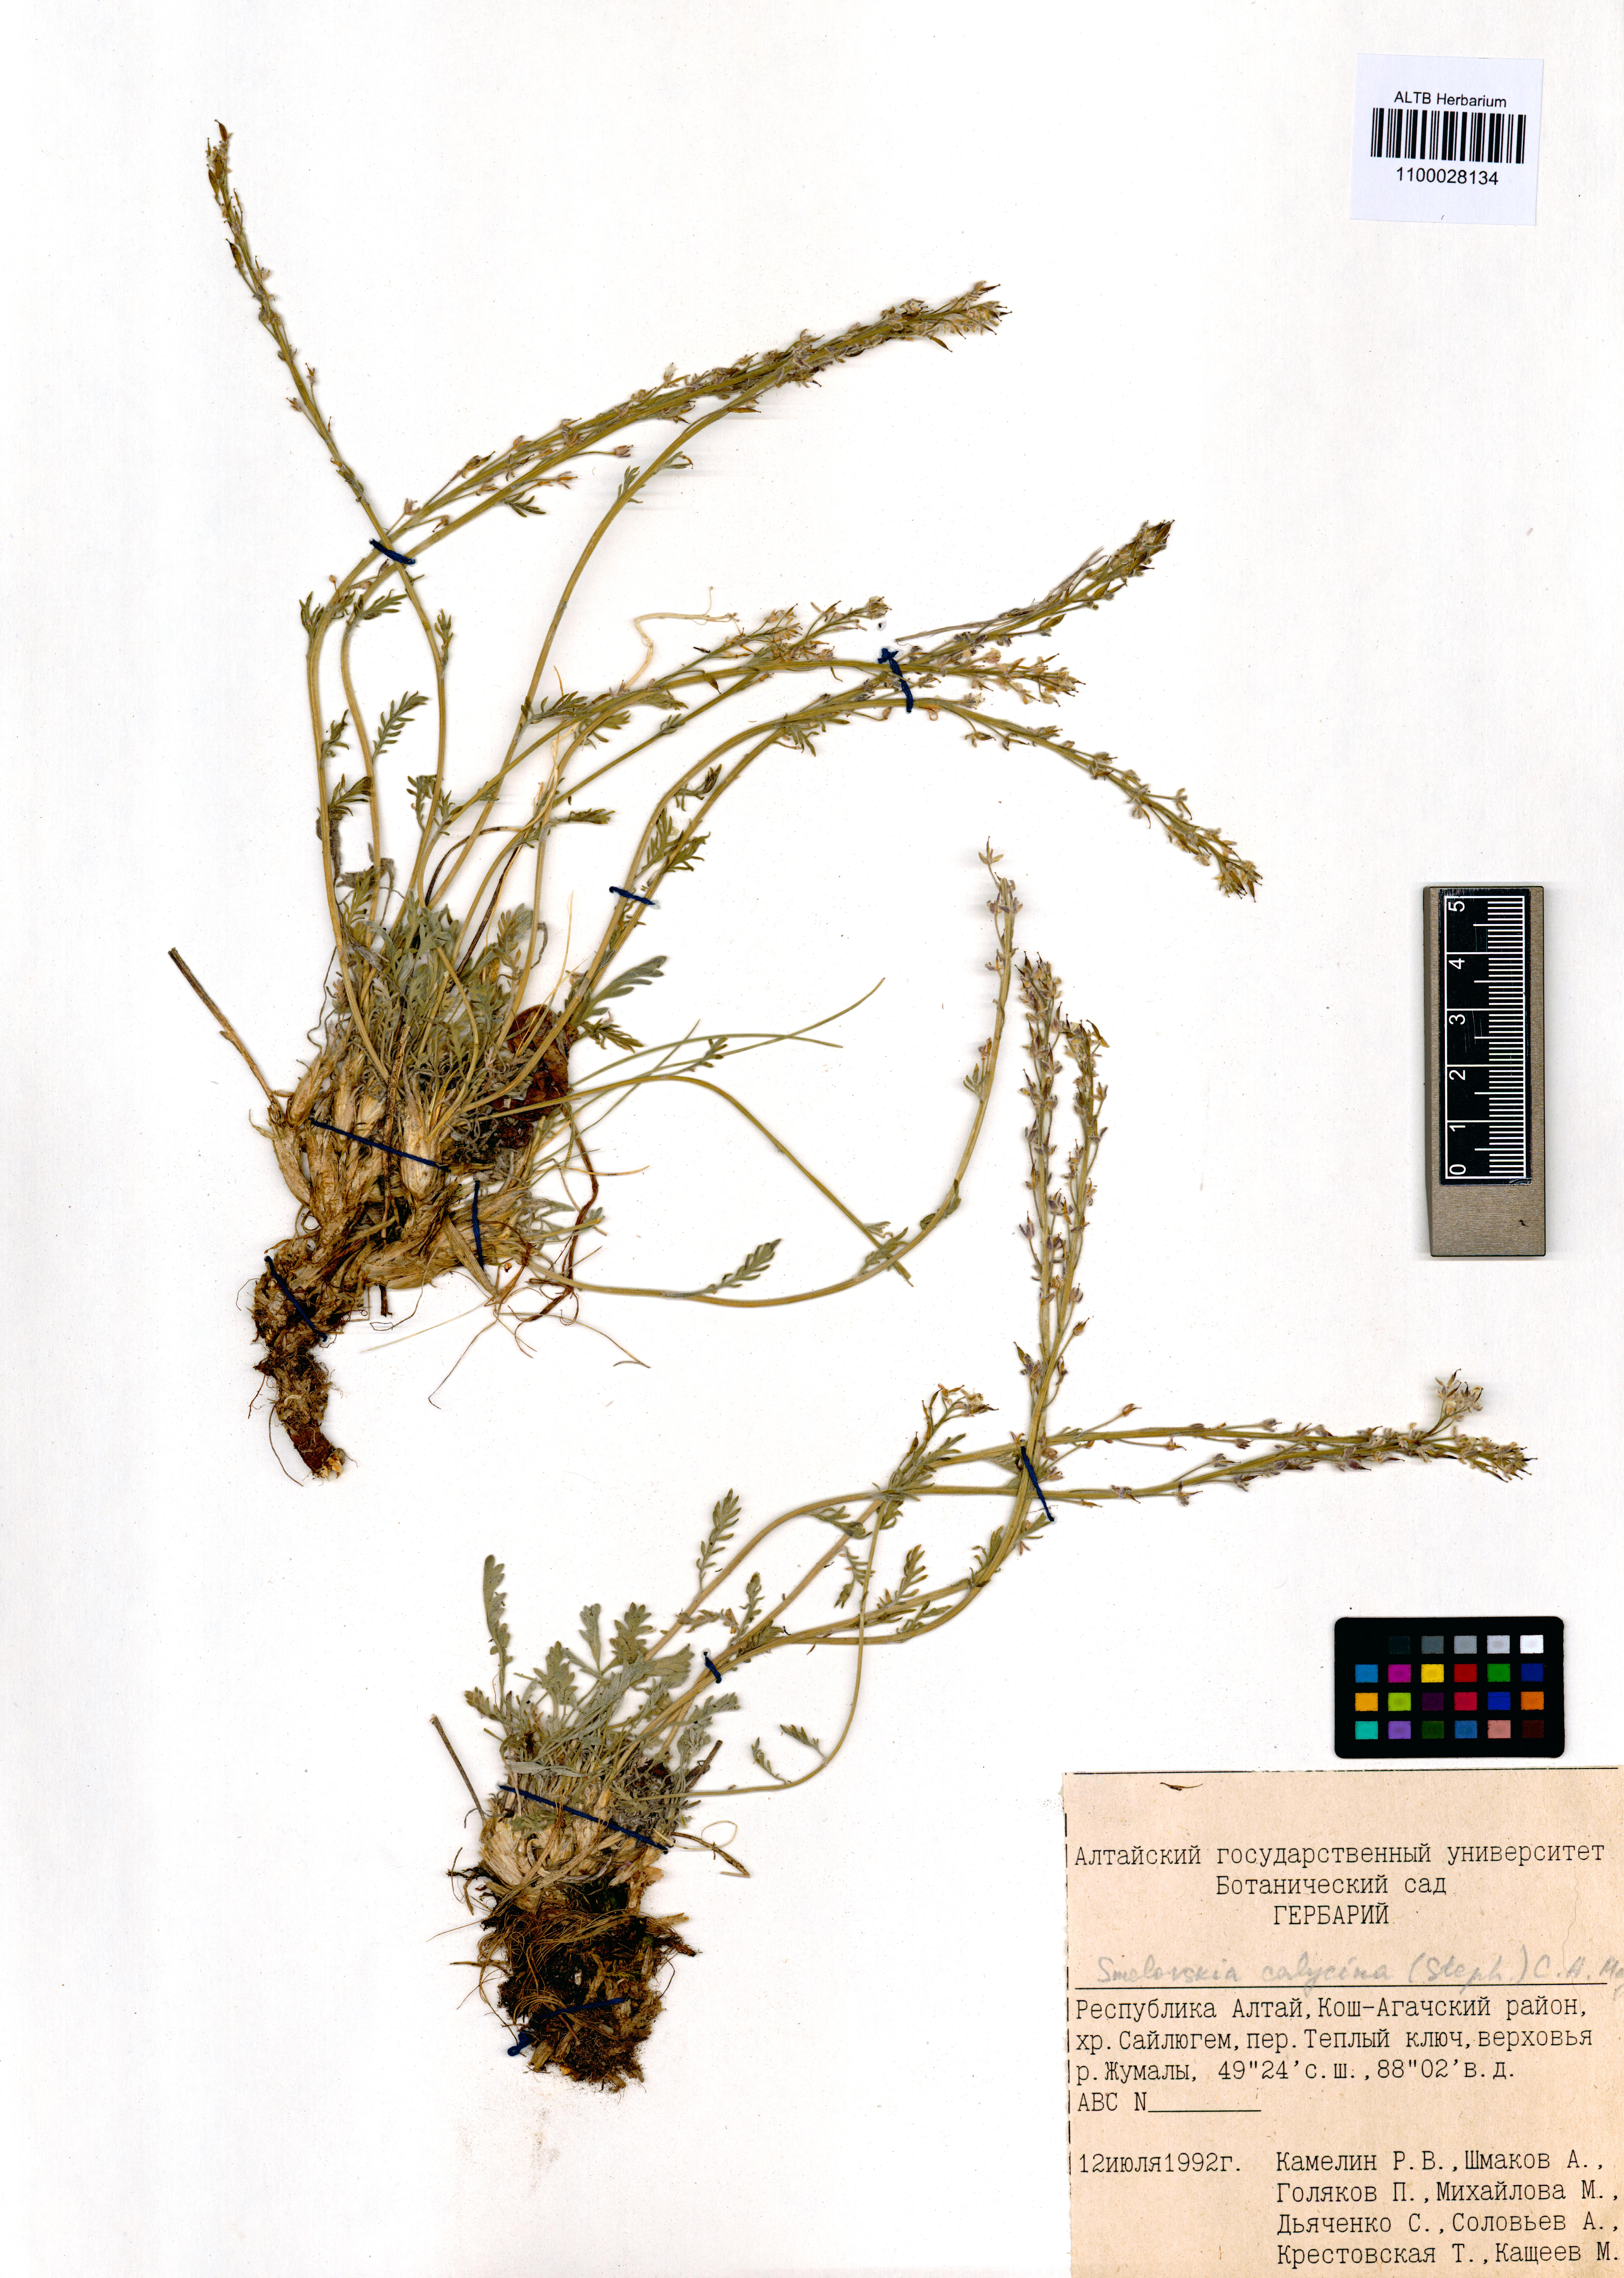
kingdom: Plantae
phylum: Tracheophyta
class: Magnoliopsida
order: Brassicales
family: Brassicaceae
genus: Smelowskia
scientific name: Smelowskia calycina
